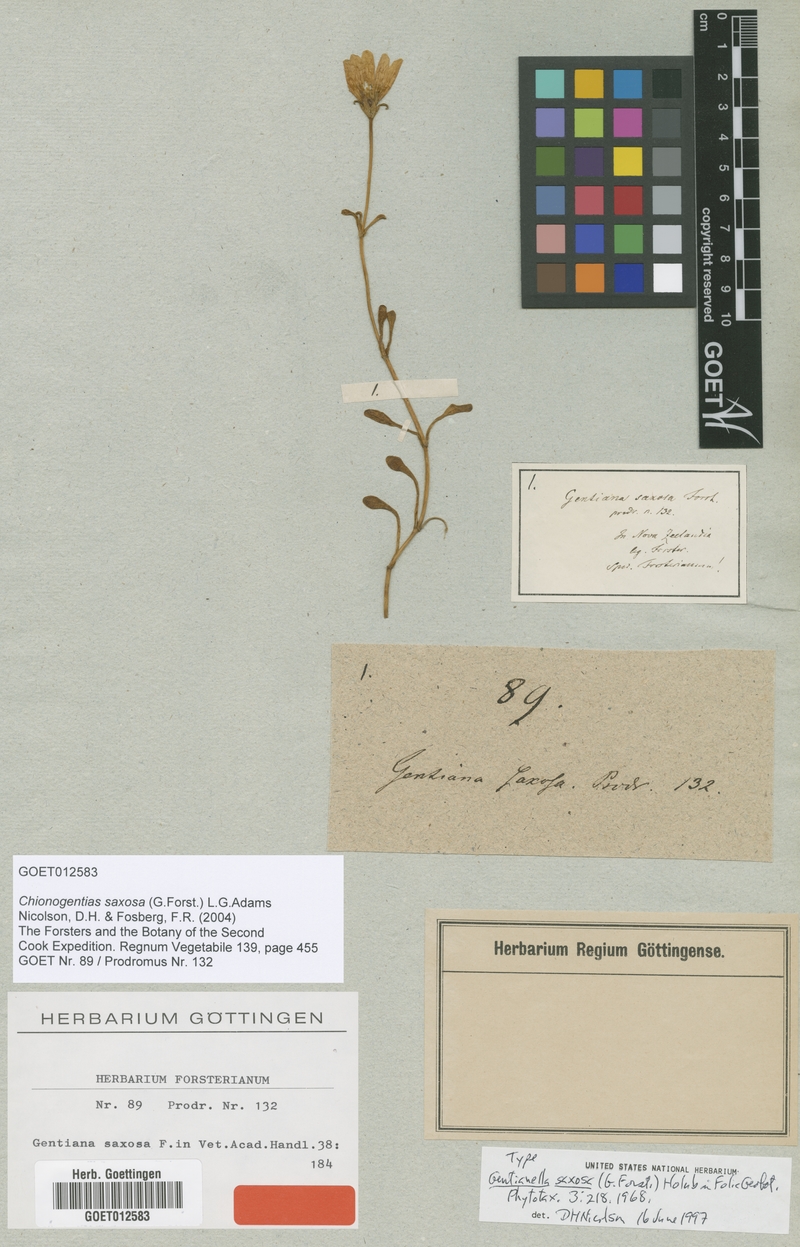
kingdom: Plantae
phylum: Tracheophyta
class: Magnoliopsida
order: Gentianales
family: Gentianaceae
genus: Gentianella
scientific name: Gentianella saxosa
